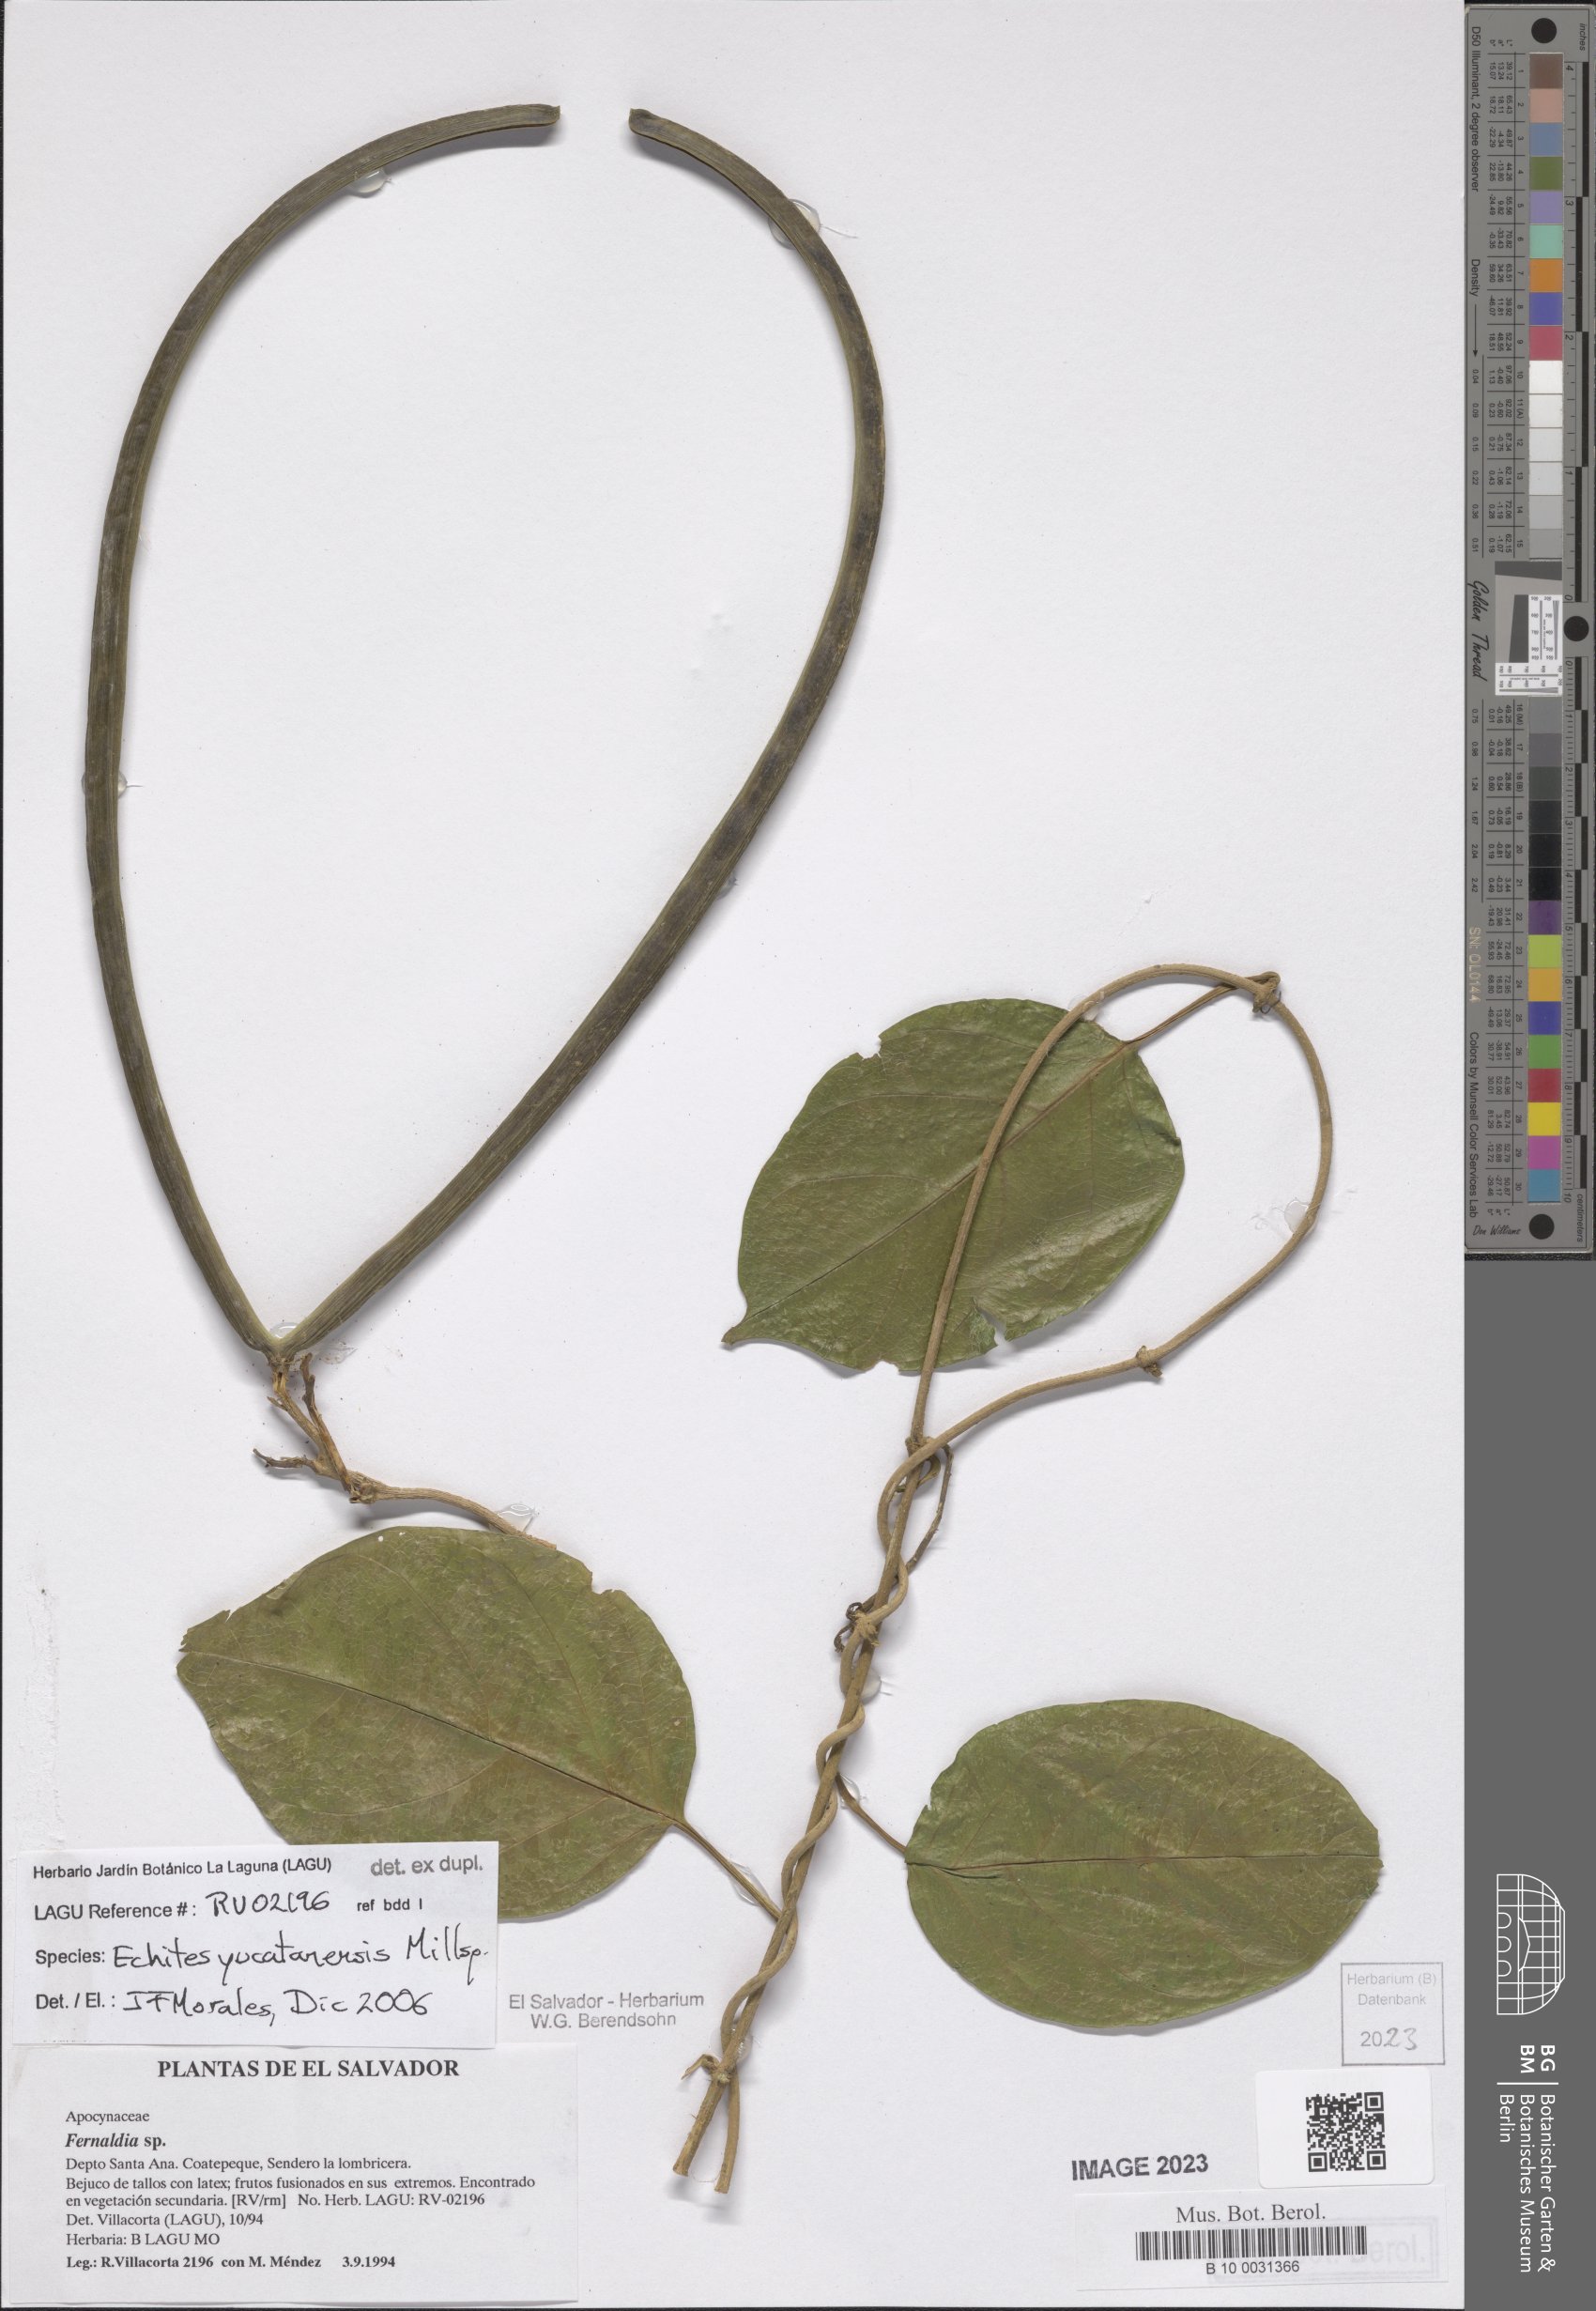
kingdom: Plantae
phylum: Tracheophyta
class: Magnoliopsida
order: Gentianales
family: Apocynaceae
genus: Echites
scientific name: Echites yucatanensis
